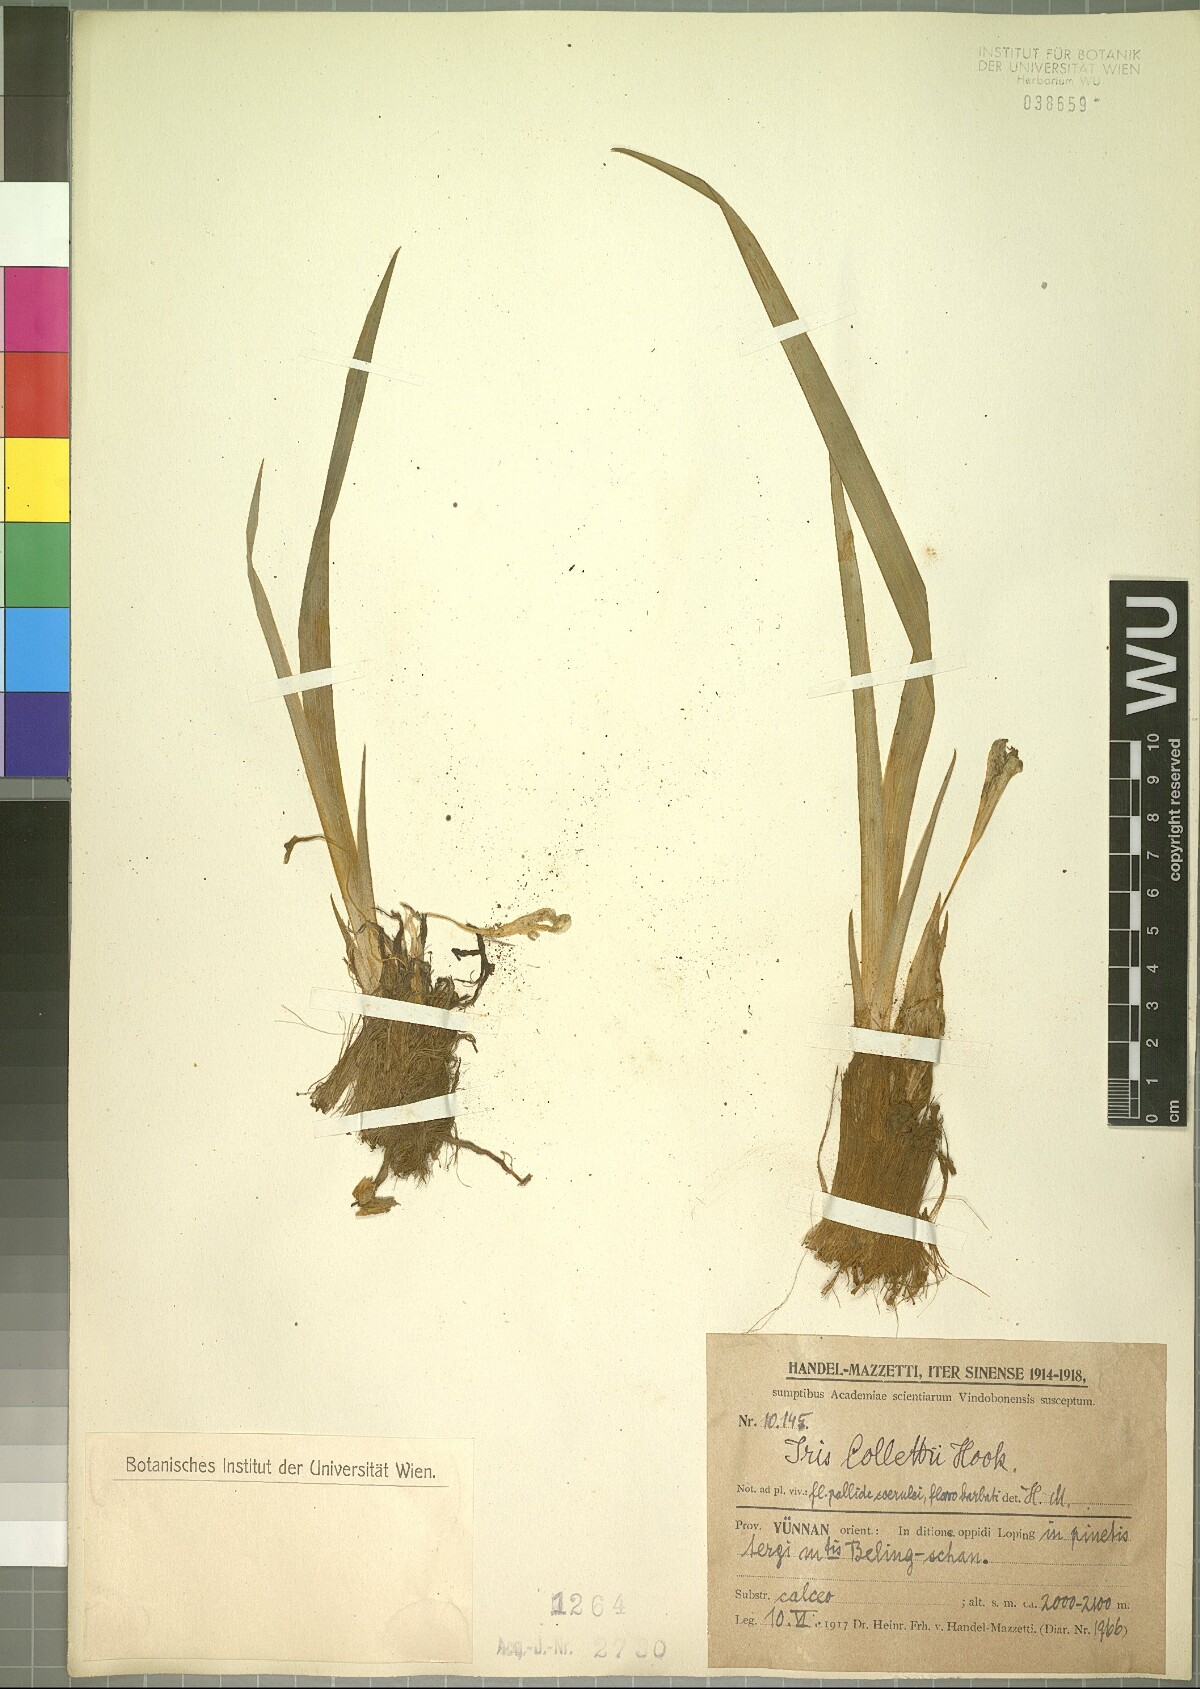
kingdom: Plantae
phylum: Tracheophyta
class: Liliopsida
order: Asparagales
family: Iridaceae
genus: Iris
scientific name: Iris collettii
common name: Plateau iris
